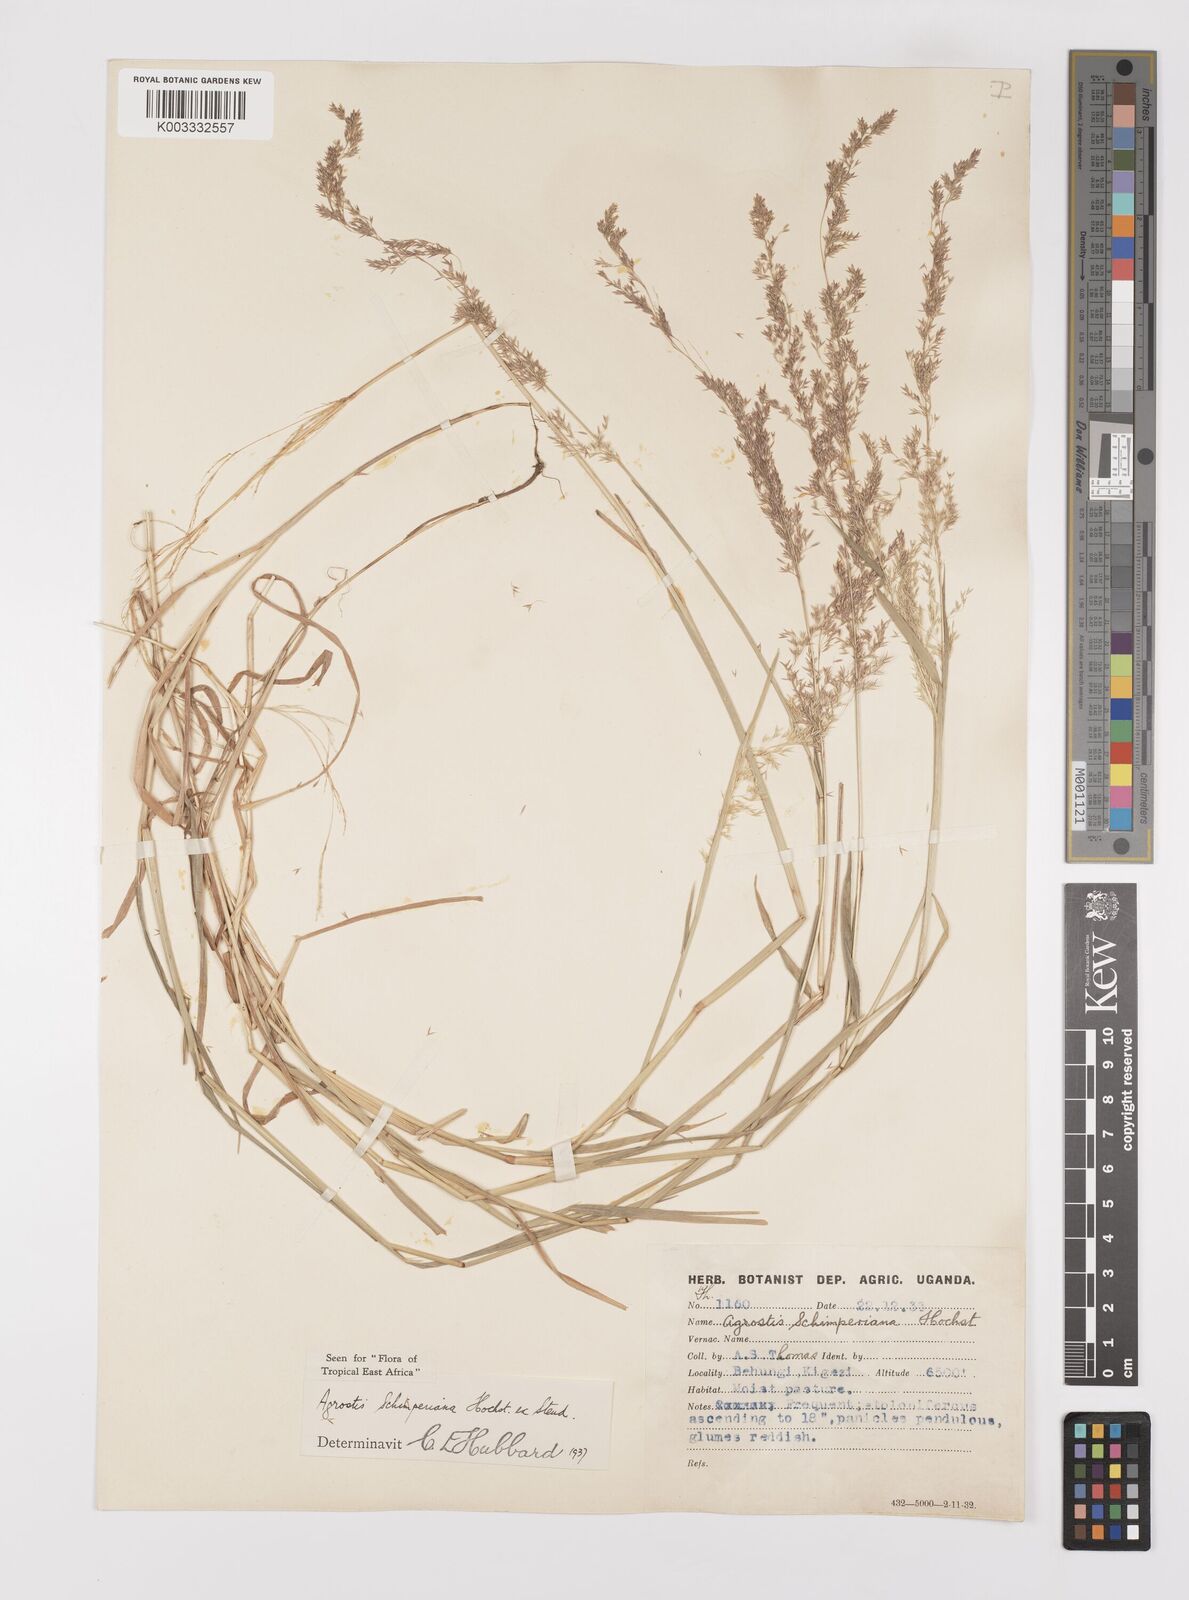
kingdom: Plantae
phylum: Tracheophyta
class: Liliopsida
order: Poales
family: Poaceae
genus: Polypogon
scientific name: Polypogon schimperianus
